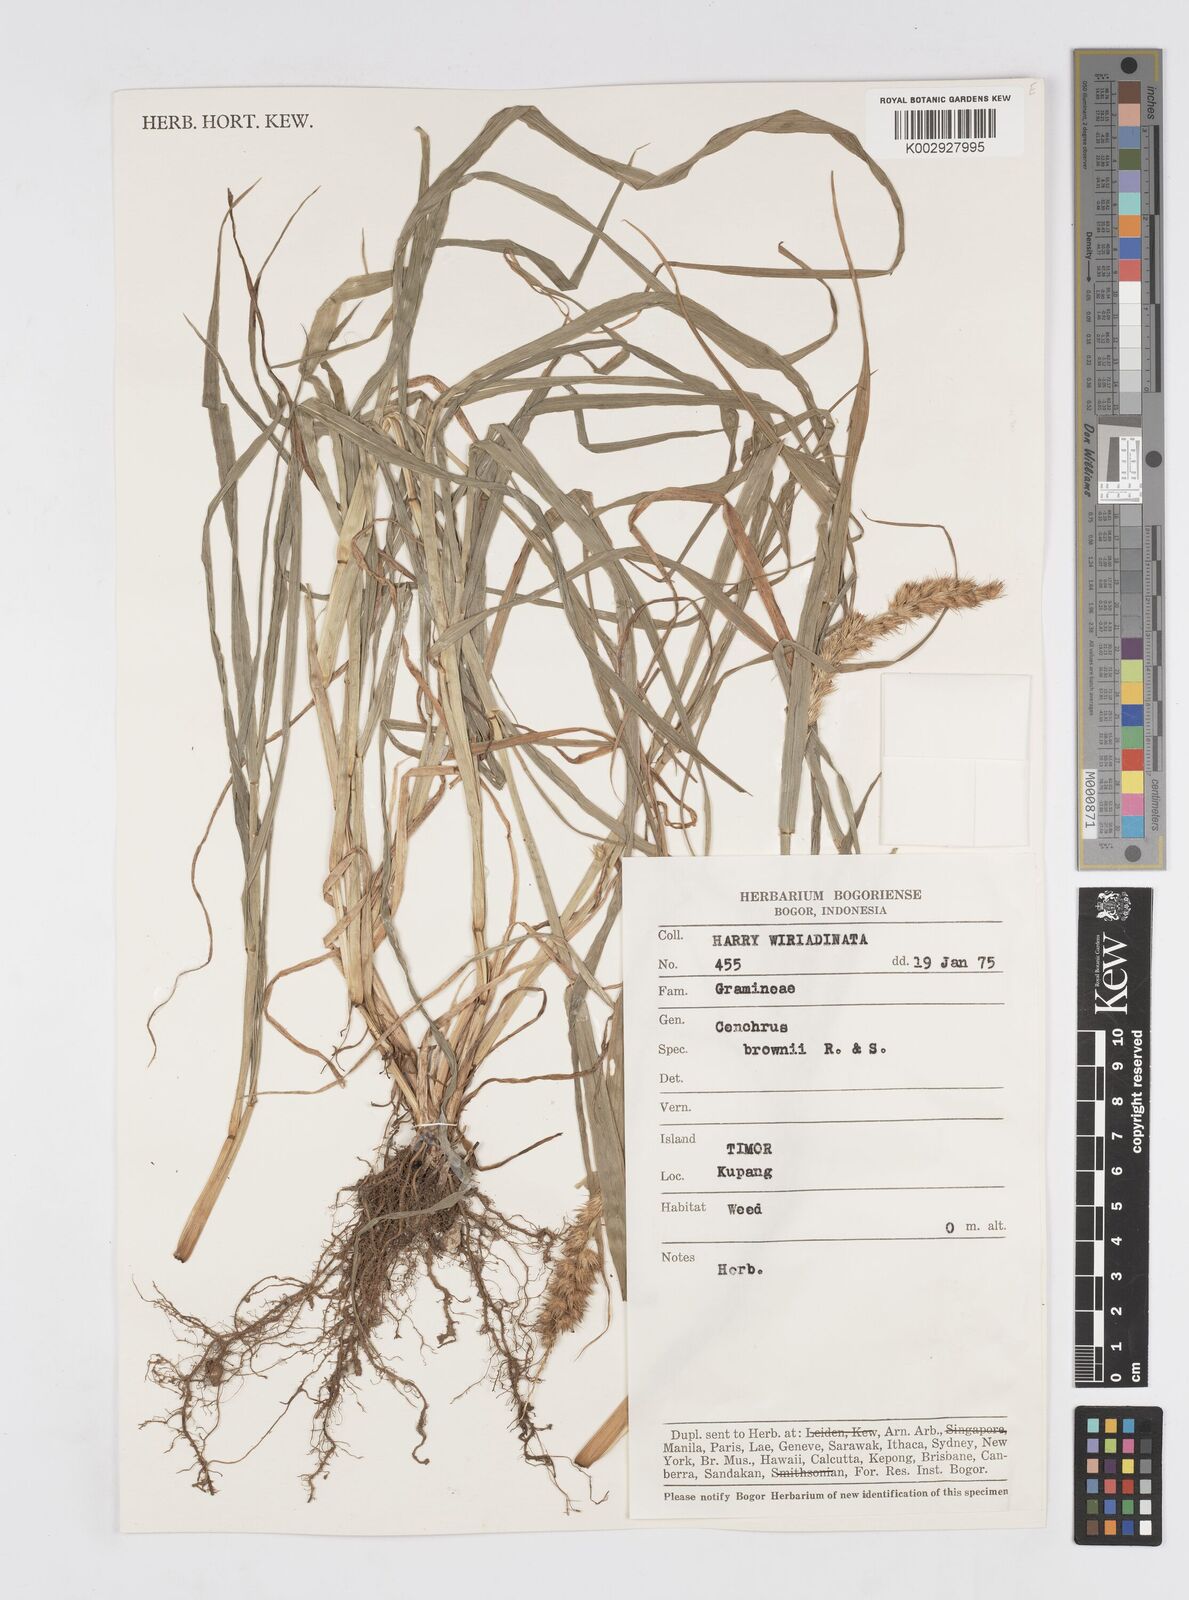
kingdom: Plantae
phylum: Tracheophyta
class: Liliopsida
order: Poales
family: Poaceae
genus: Cenchrus
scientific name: Cenchrus brownii
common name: Slim-bristle sandbur
